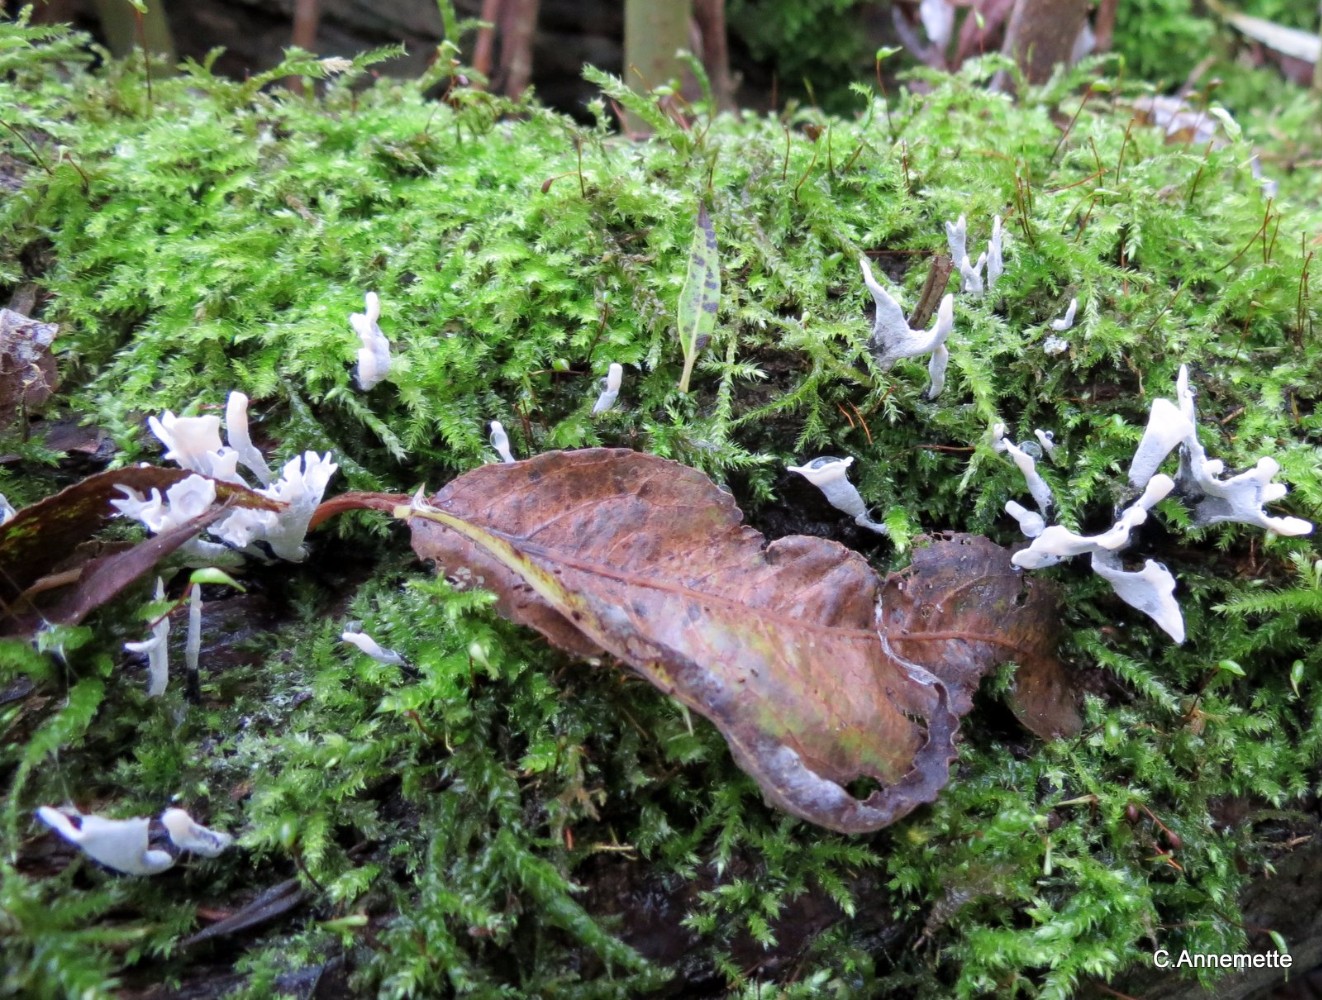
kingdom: Fungi
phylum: Ascomycota
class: Sordariomycetes
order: Xylariales
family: Xylariaceae
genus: Xylaria
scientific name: Xylaria hypoxylon
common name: grenet stødsvamp
